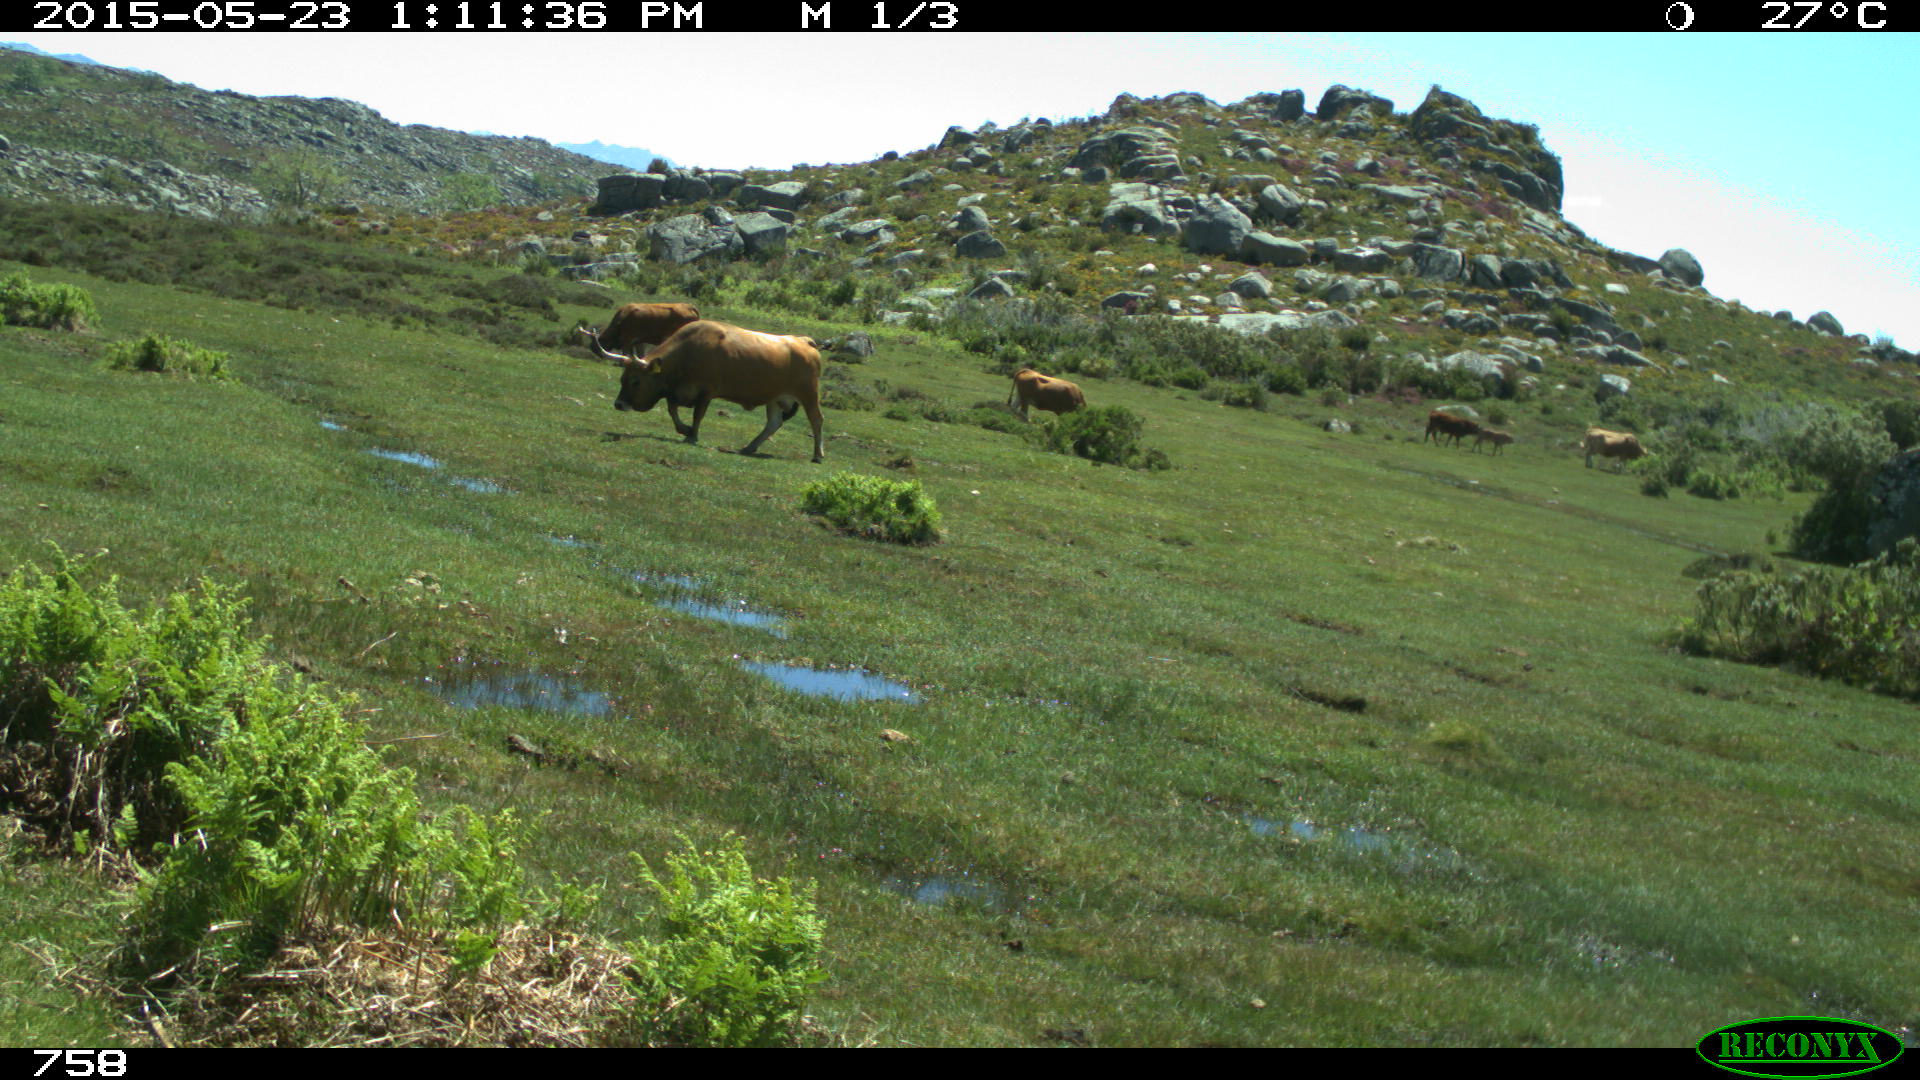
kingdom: Animalia
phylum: Chordata
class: Mammalia
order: Artiodactyla
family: Bovidae
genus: Bos
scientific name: Bos taurus
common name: Domesticated cattle
